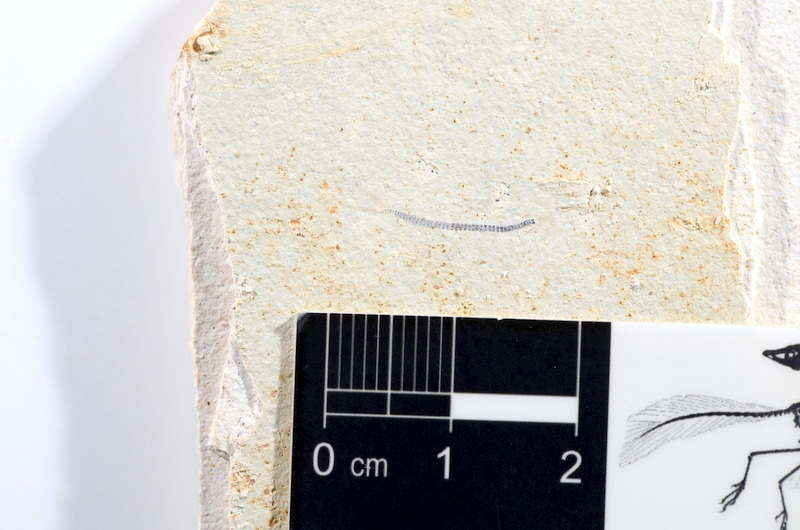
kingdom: Animalia
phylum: Chordata
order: Salmoniformes
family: Orthogonikleithridae
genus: Orthogonikleithrus
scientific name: Orthogonikleithrus hoelli
